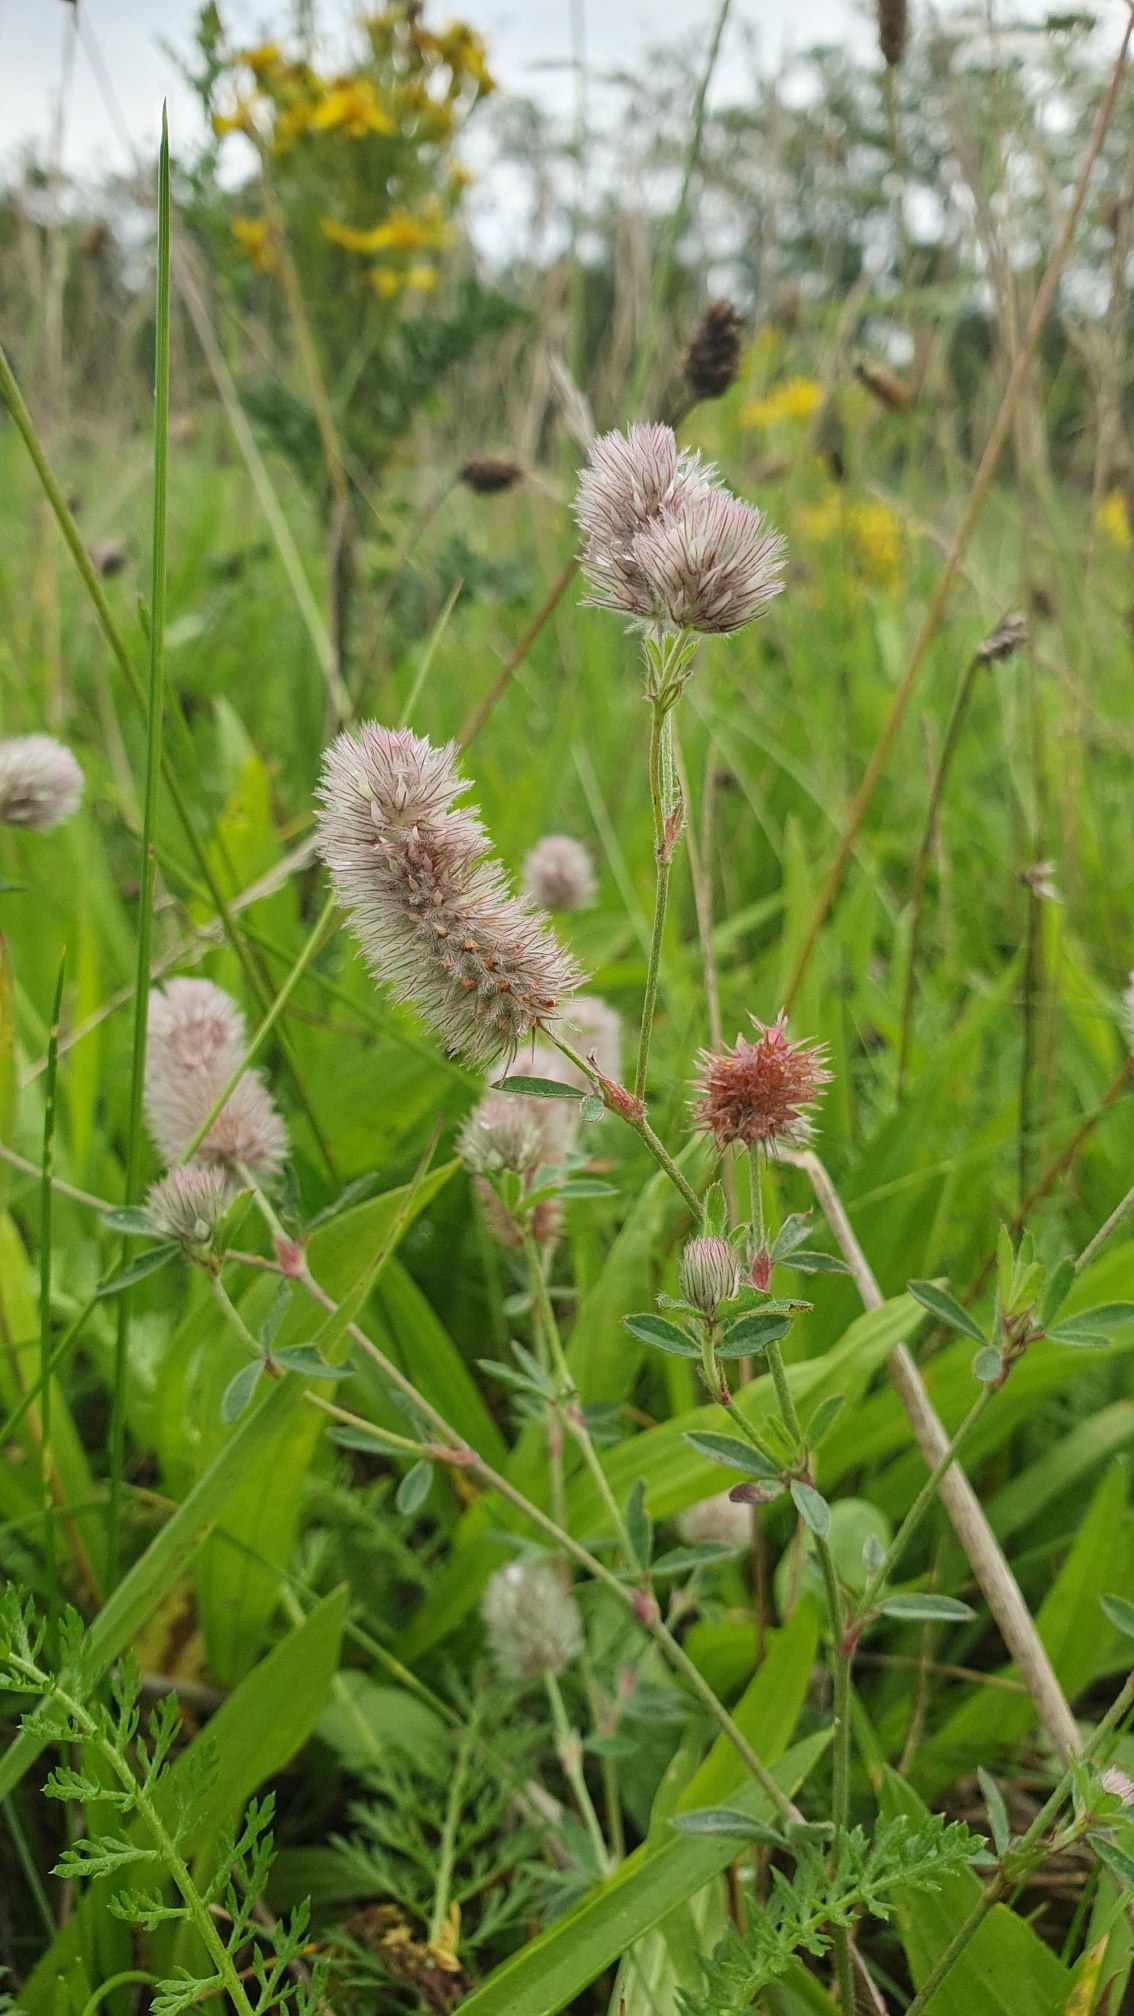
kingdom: Plantae
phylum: Tracheophyta
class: Magnoliopsida
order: Fabales
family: Fabaceae
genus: Trifolium
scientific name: Trifolium arvense
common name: Hare-kløver
